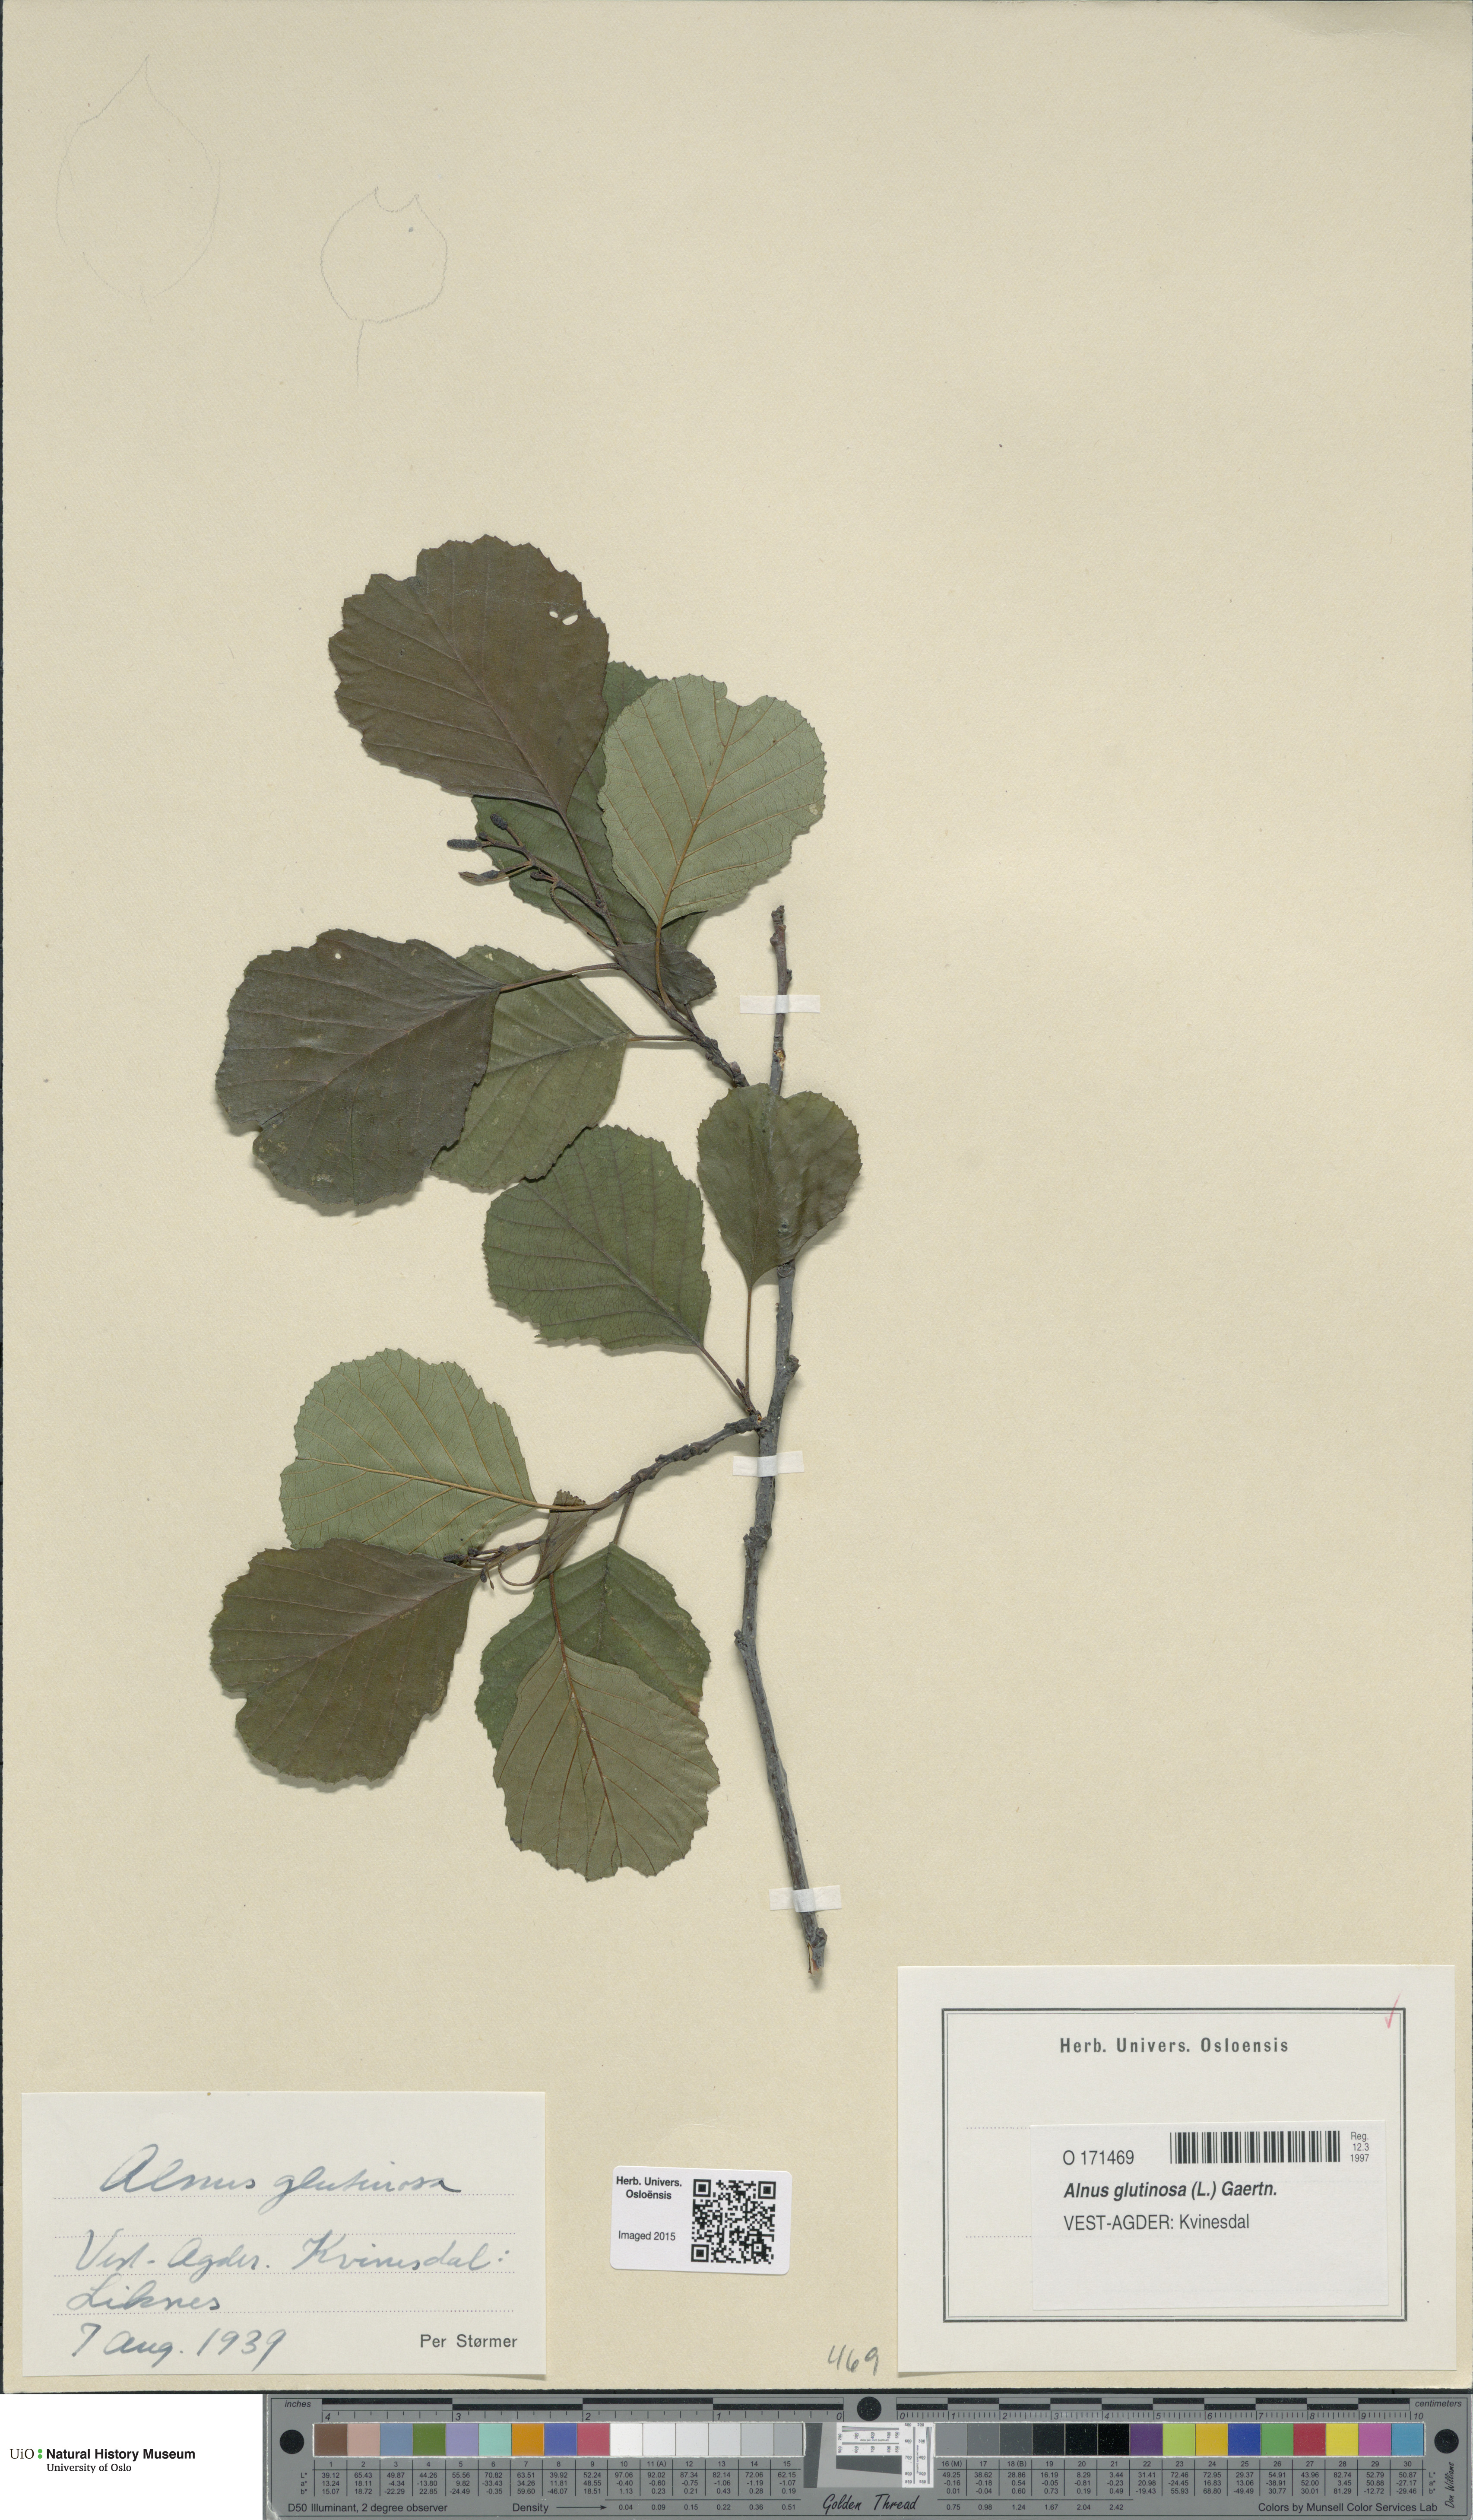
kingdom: Plantae
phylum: Tracheophyta
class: Magnoliopsida
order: Fagales
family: Betulaceae
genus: Alnus
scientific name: Alnus glutinosa
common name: Black alder
